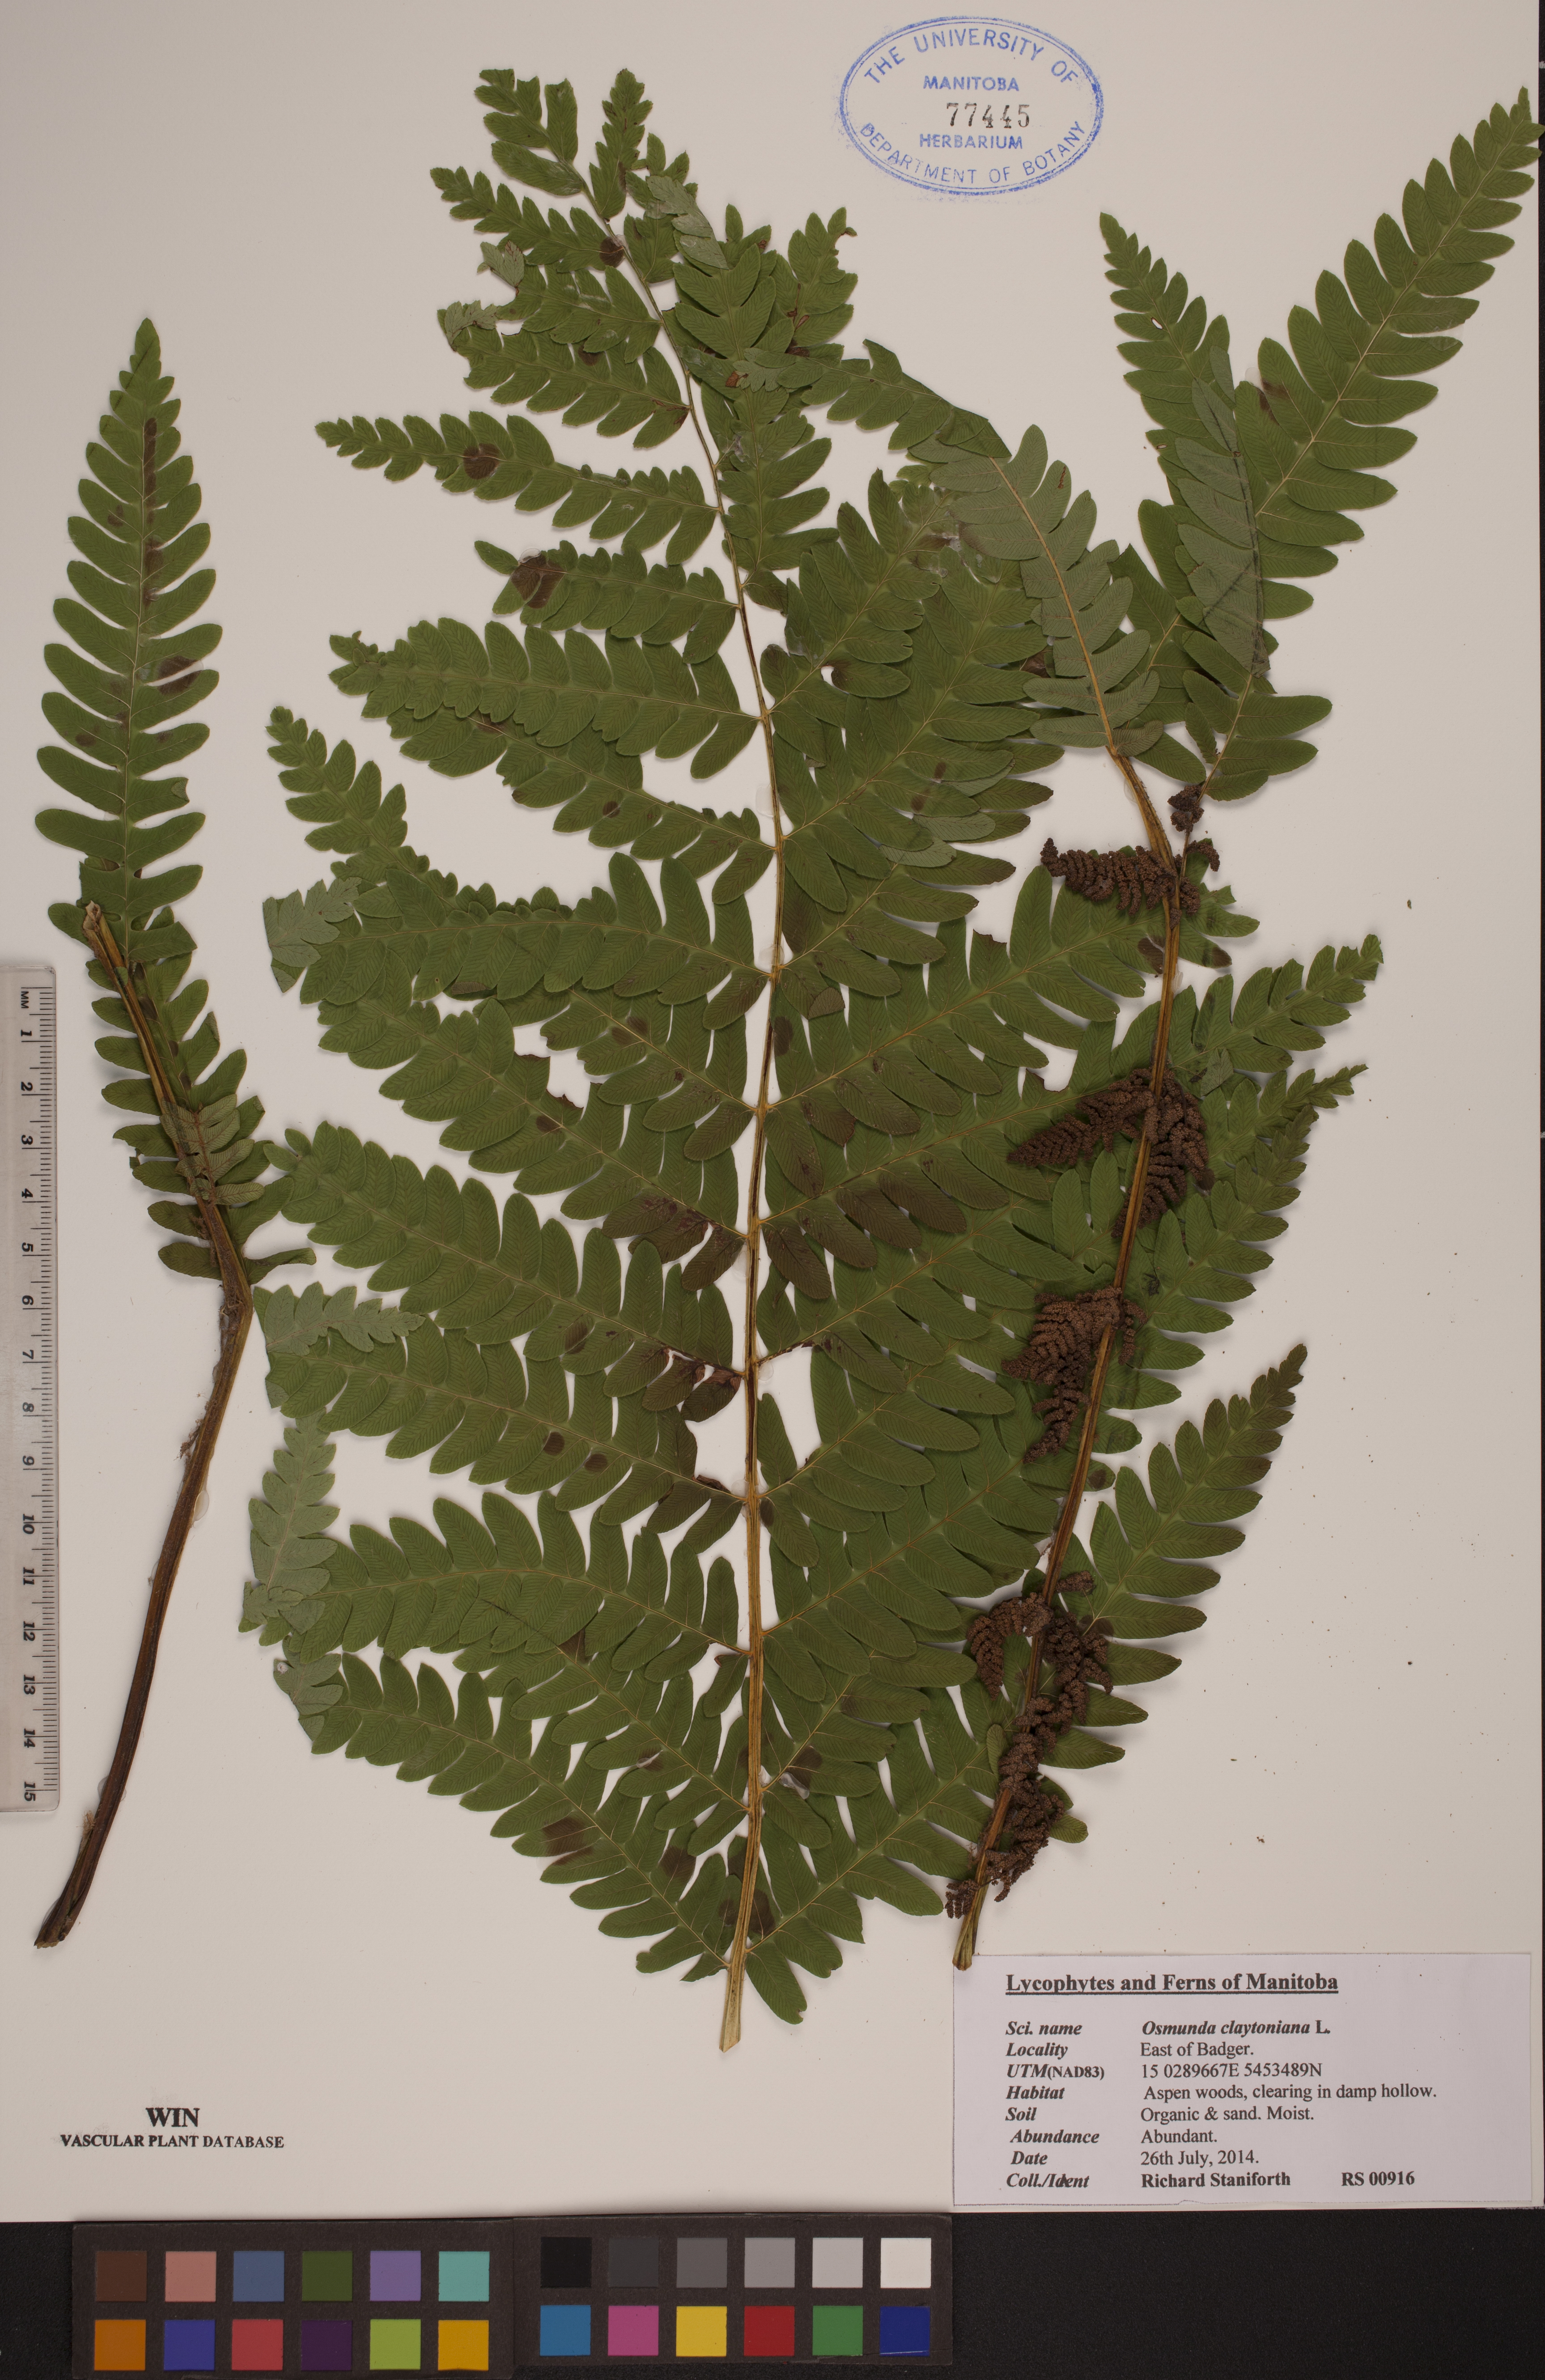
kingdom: Plantae
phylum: Tracheophyta
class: Polypodiopsida
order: Osmundales
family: Osmundaceae
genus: Claytosmunda
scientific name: Claytosmunda claytoniana
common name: Clayton's fern
